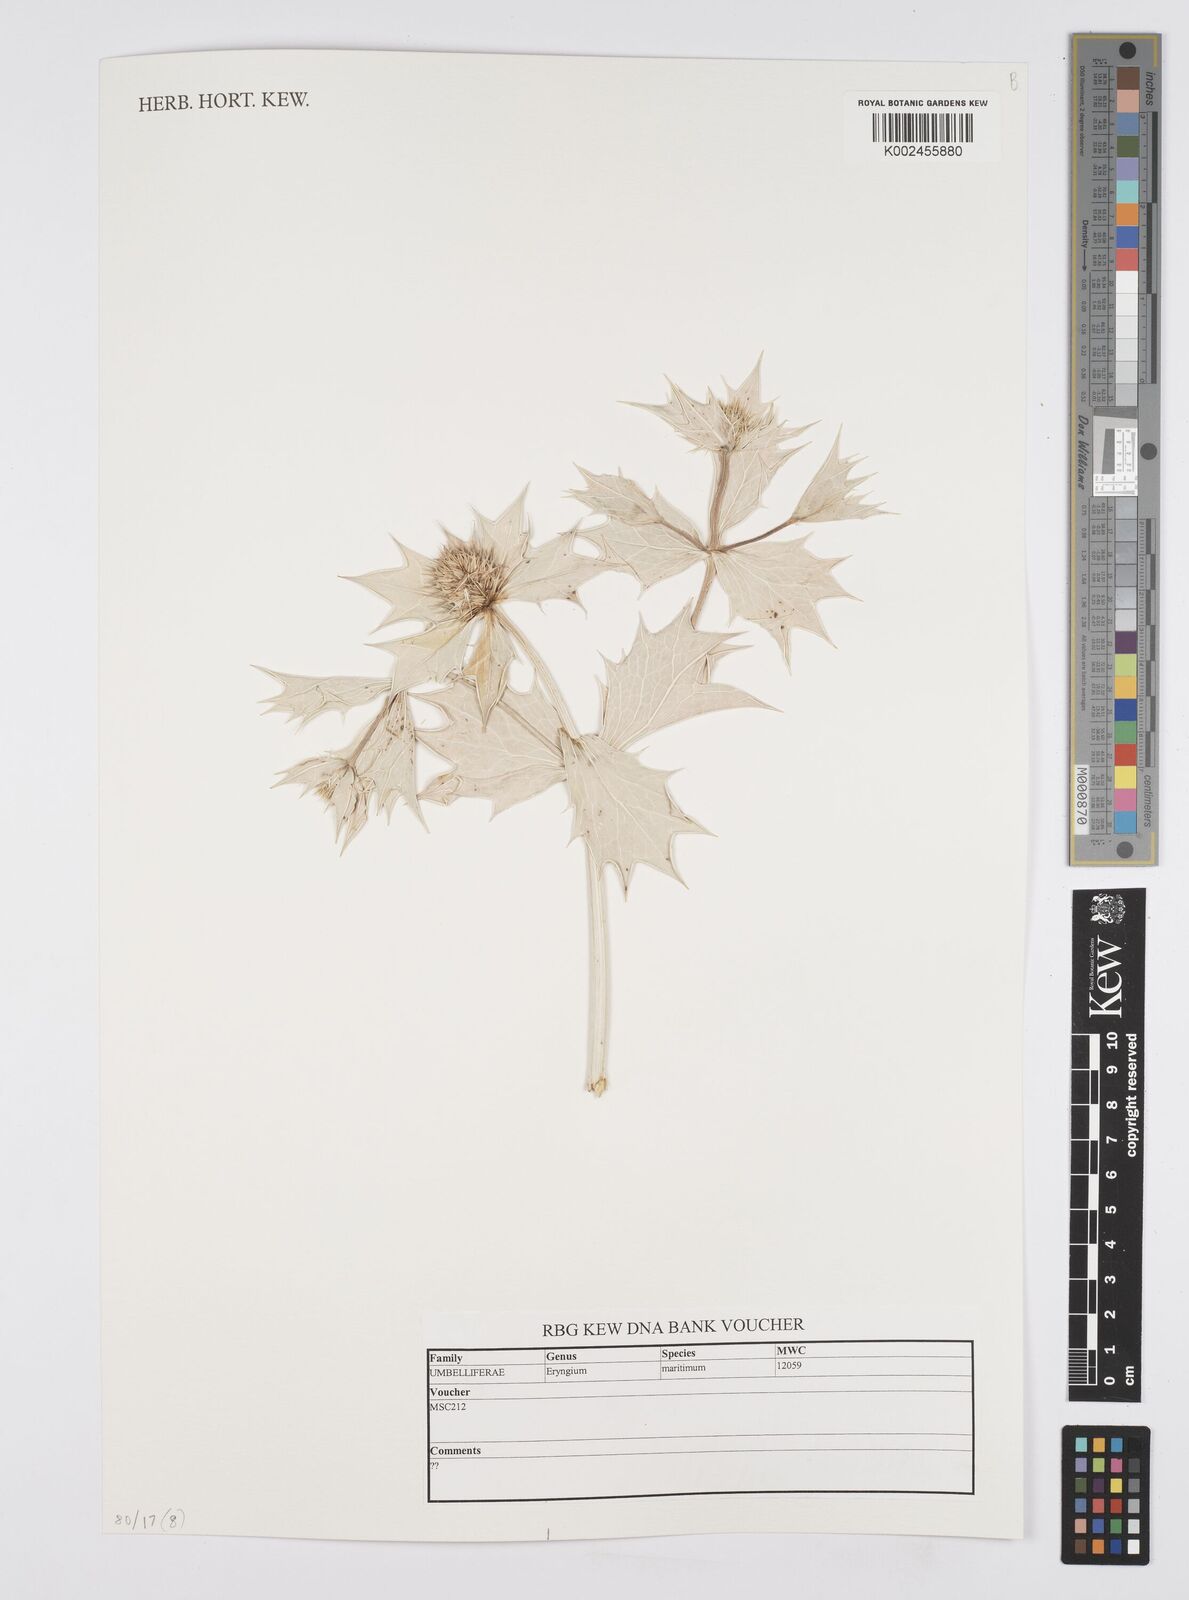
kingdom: Plantae
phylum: Tracheophyta
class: Magnoliopsida
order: Apiales
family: Apiaceae
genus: Eryngium
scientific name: Eryngium maritimum
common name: Sea-holly
